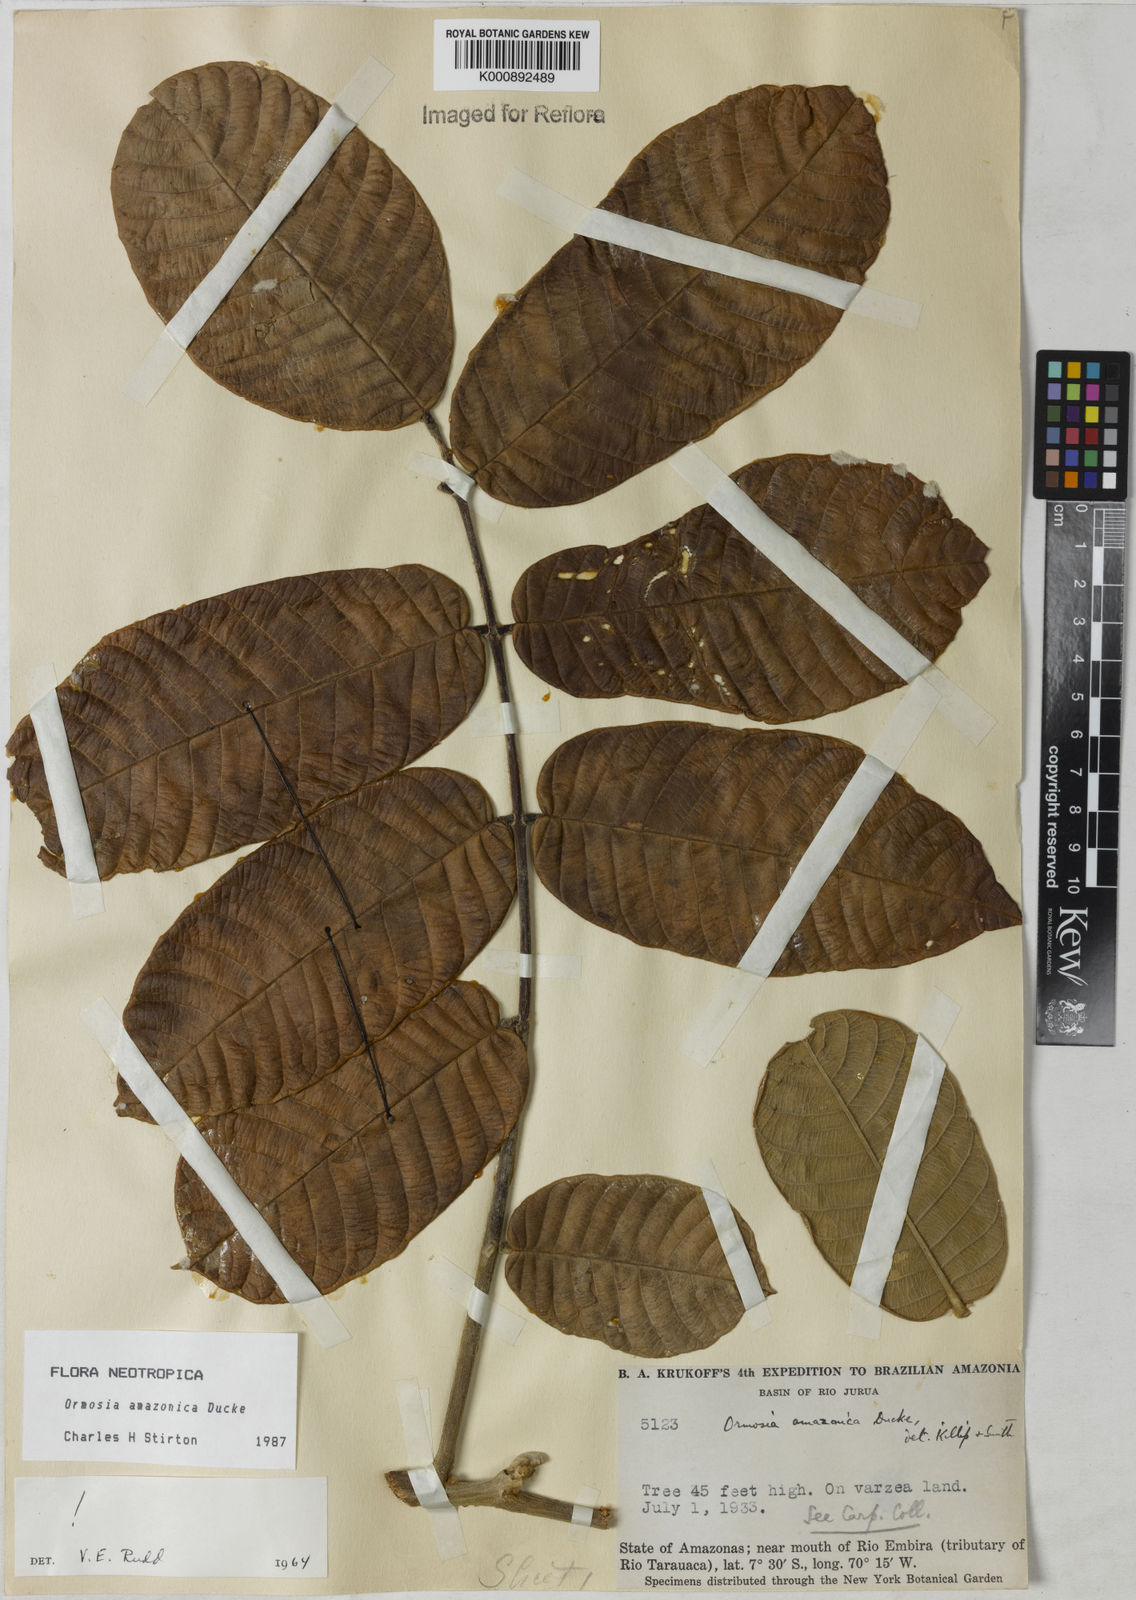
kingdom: Plantae
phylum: Tracheophyta
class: Magnoliopsida
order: Fabales
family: Fabaceae
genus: Ormosia
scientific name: Ormosia amazonica
